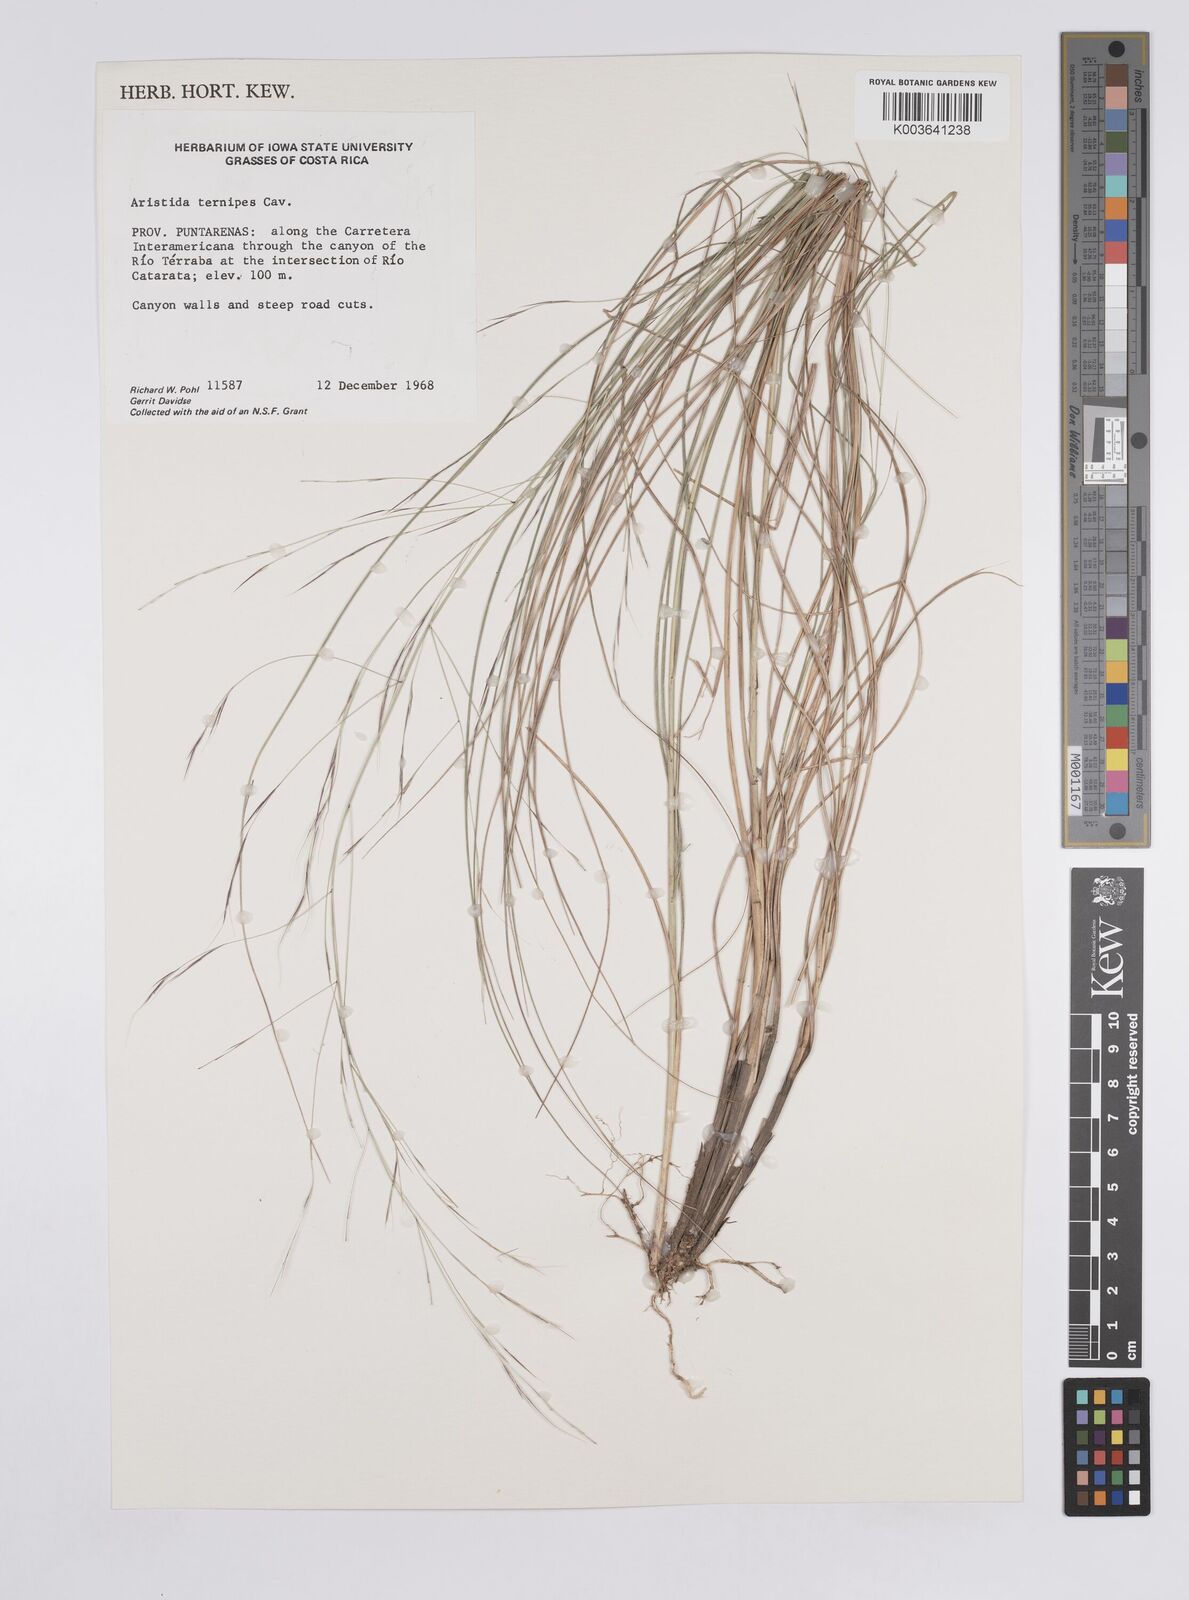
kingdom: Plantae
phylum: Tracheophyta
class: Liliopsida
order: Poales
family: Poaceae
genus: Aristida
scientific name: Aristida
